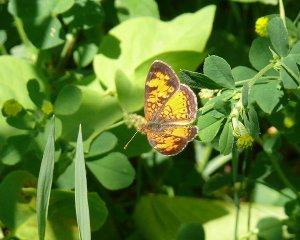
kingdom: Animalia
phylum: Arthropoda
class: Insecta
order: Lepidoptera
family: Nymphalidae
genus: Phyciodes
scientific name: Phyciodes tharos
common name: Northern Crescent
